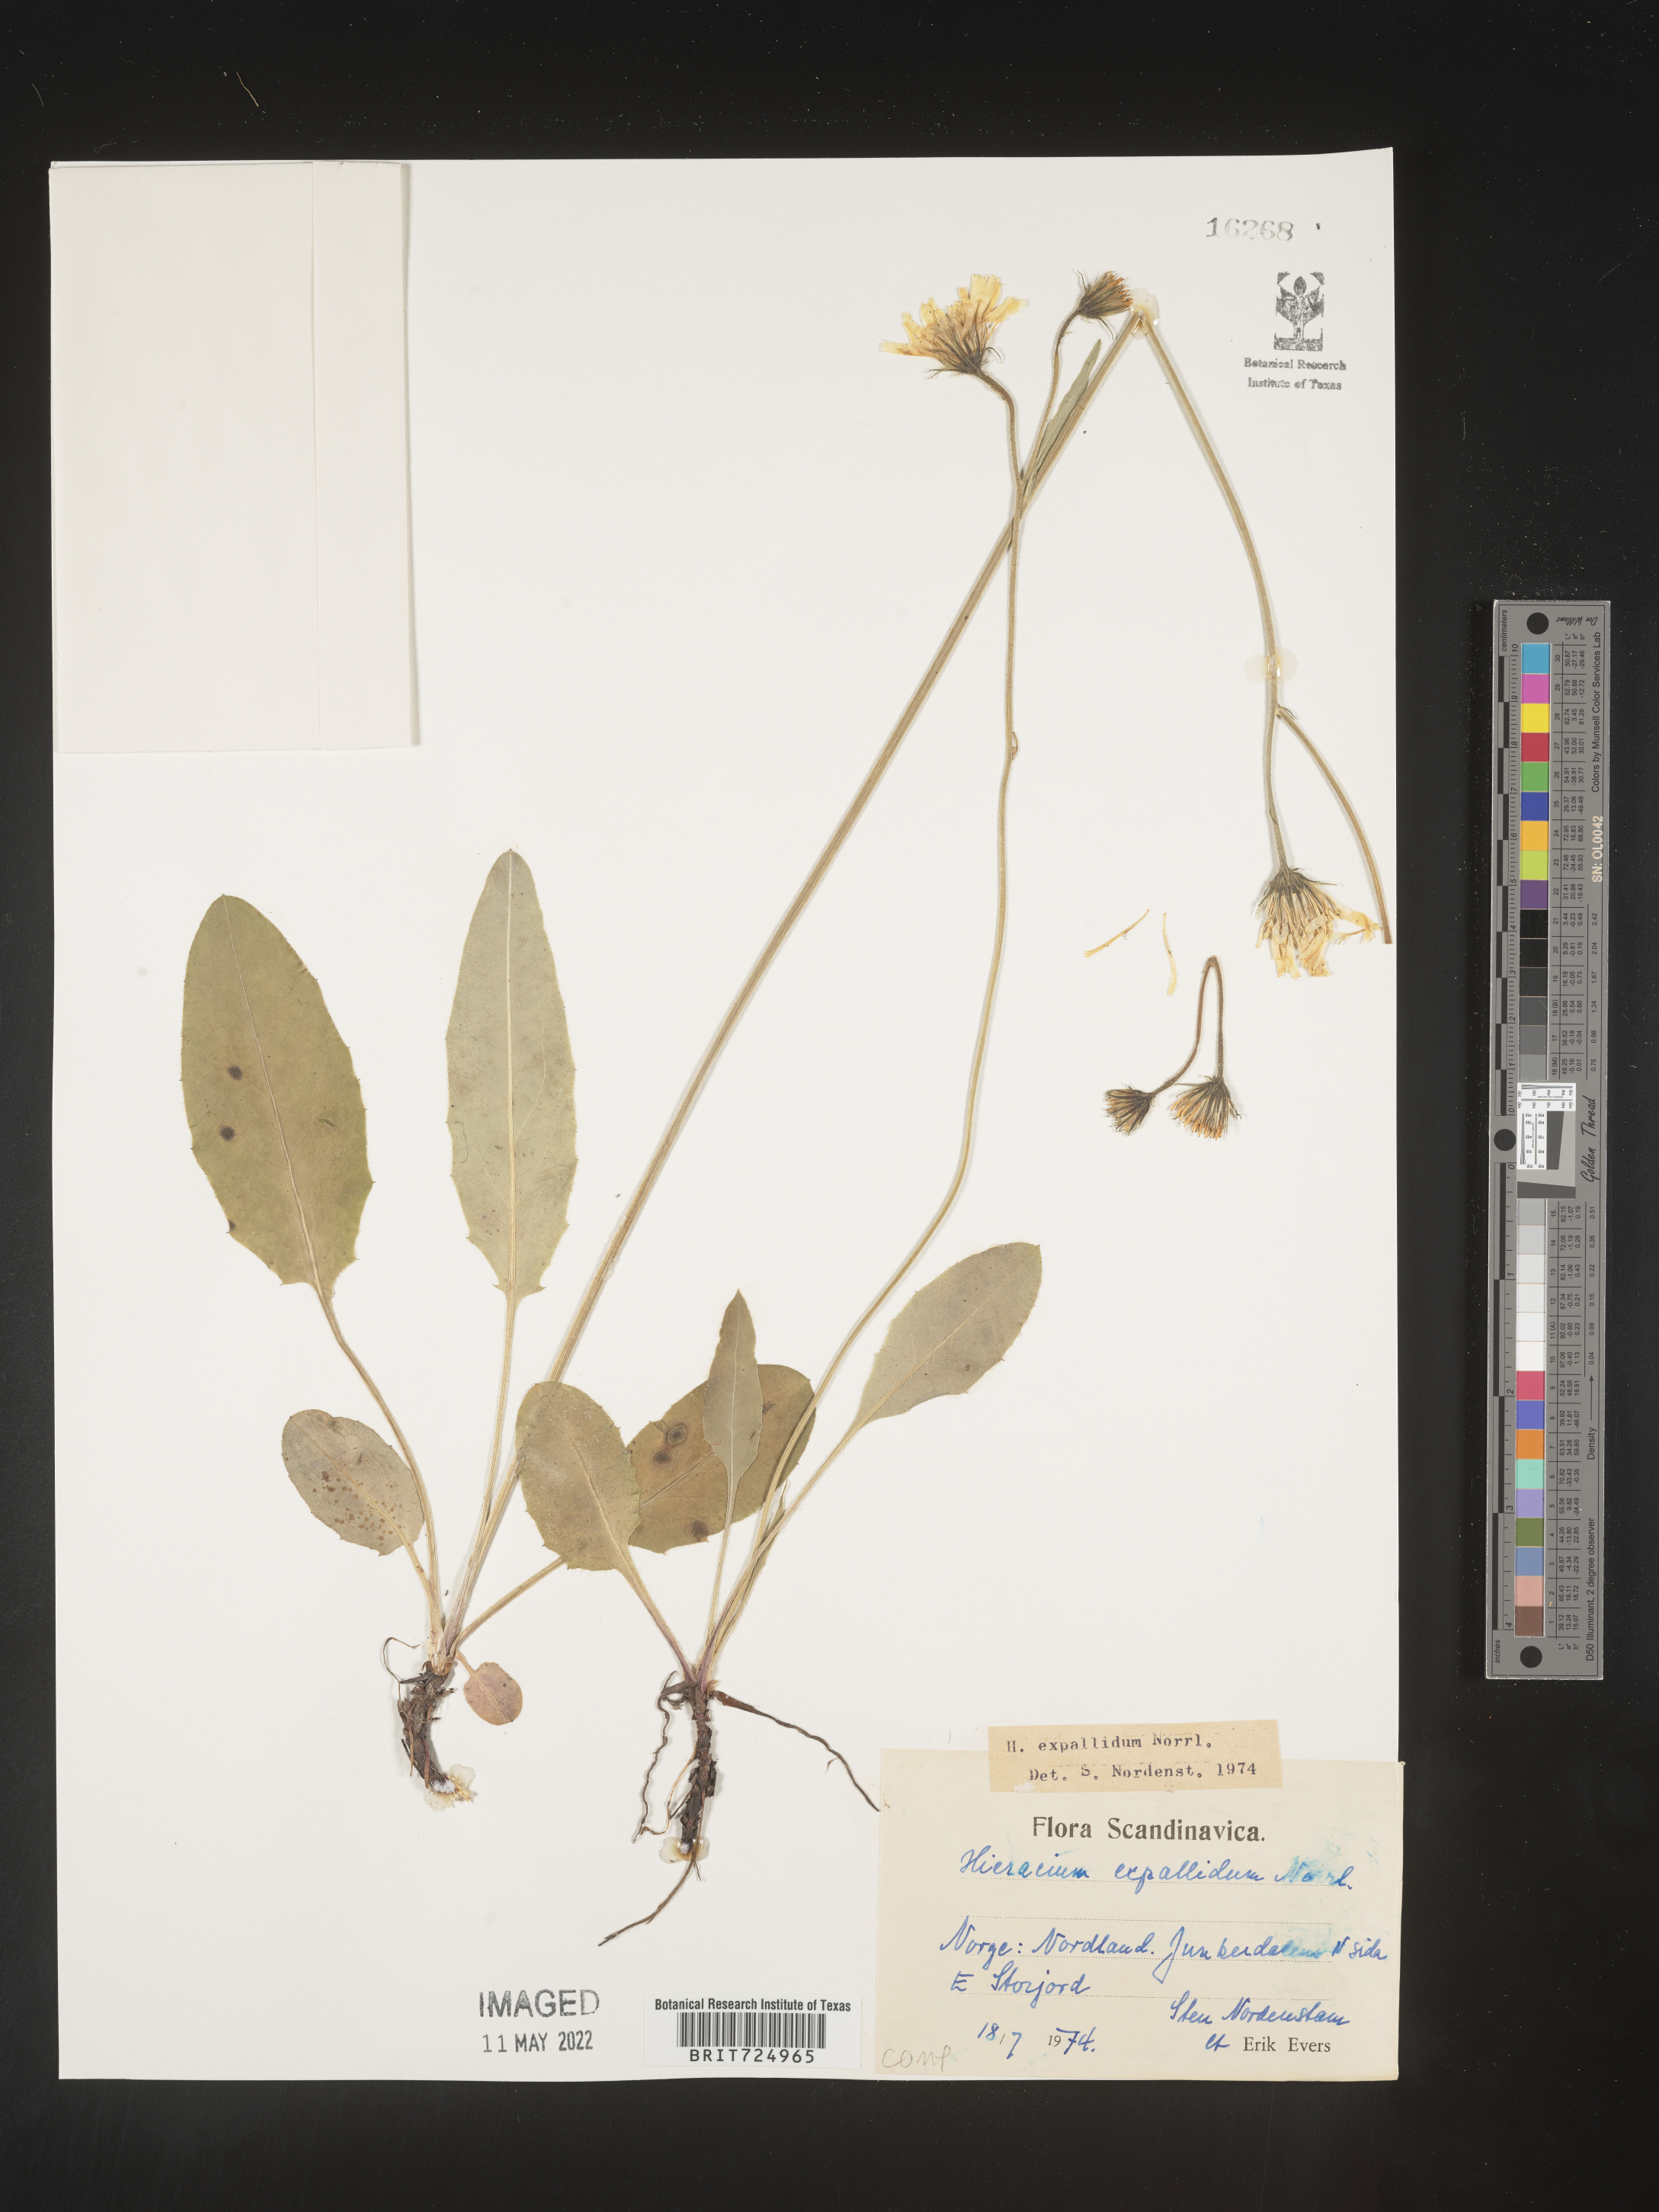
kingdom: Plantae
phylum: Tracheophyta
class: Magnoliopsida
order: Asterales
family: Asteraceae
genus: Hieracium
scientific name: Hieracium
